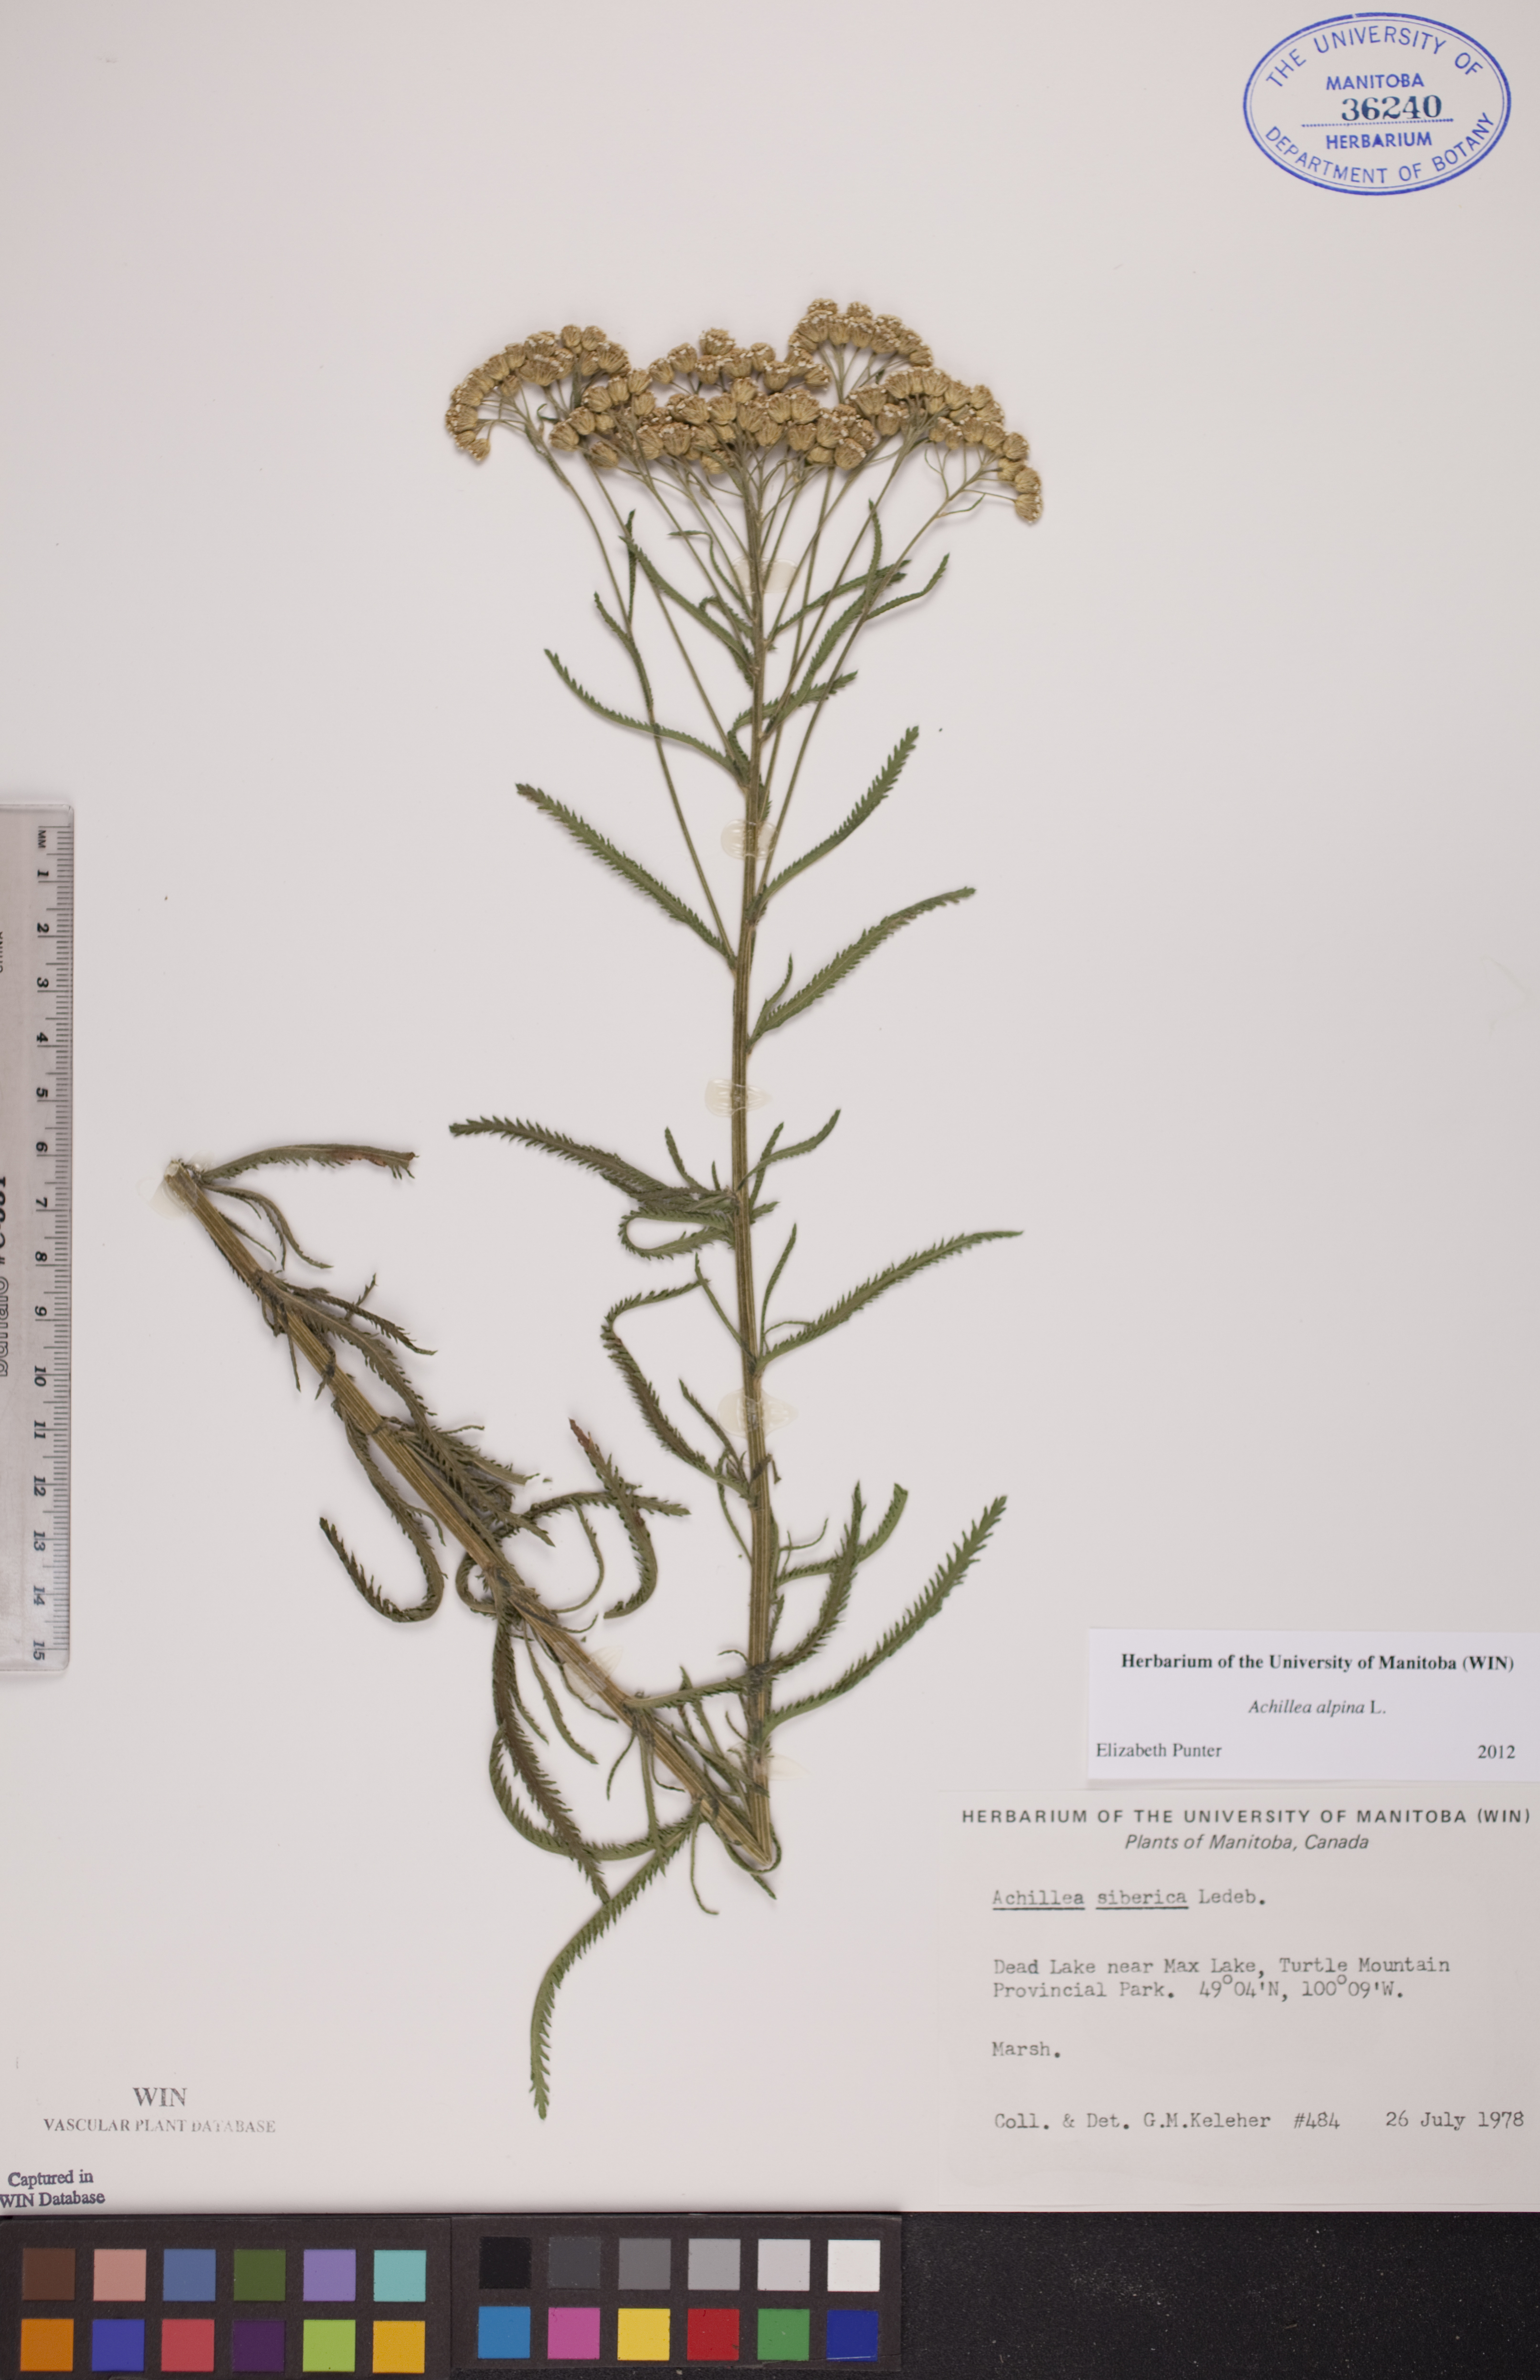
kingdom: Plantae
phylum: Tracheophyta
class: Magnoliopsida
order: Asterales
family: Asteraceae
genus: Achillea
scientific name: Achillea alpina
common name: Siberian yarrow
